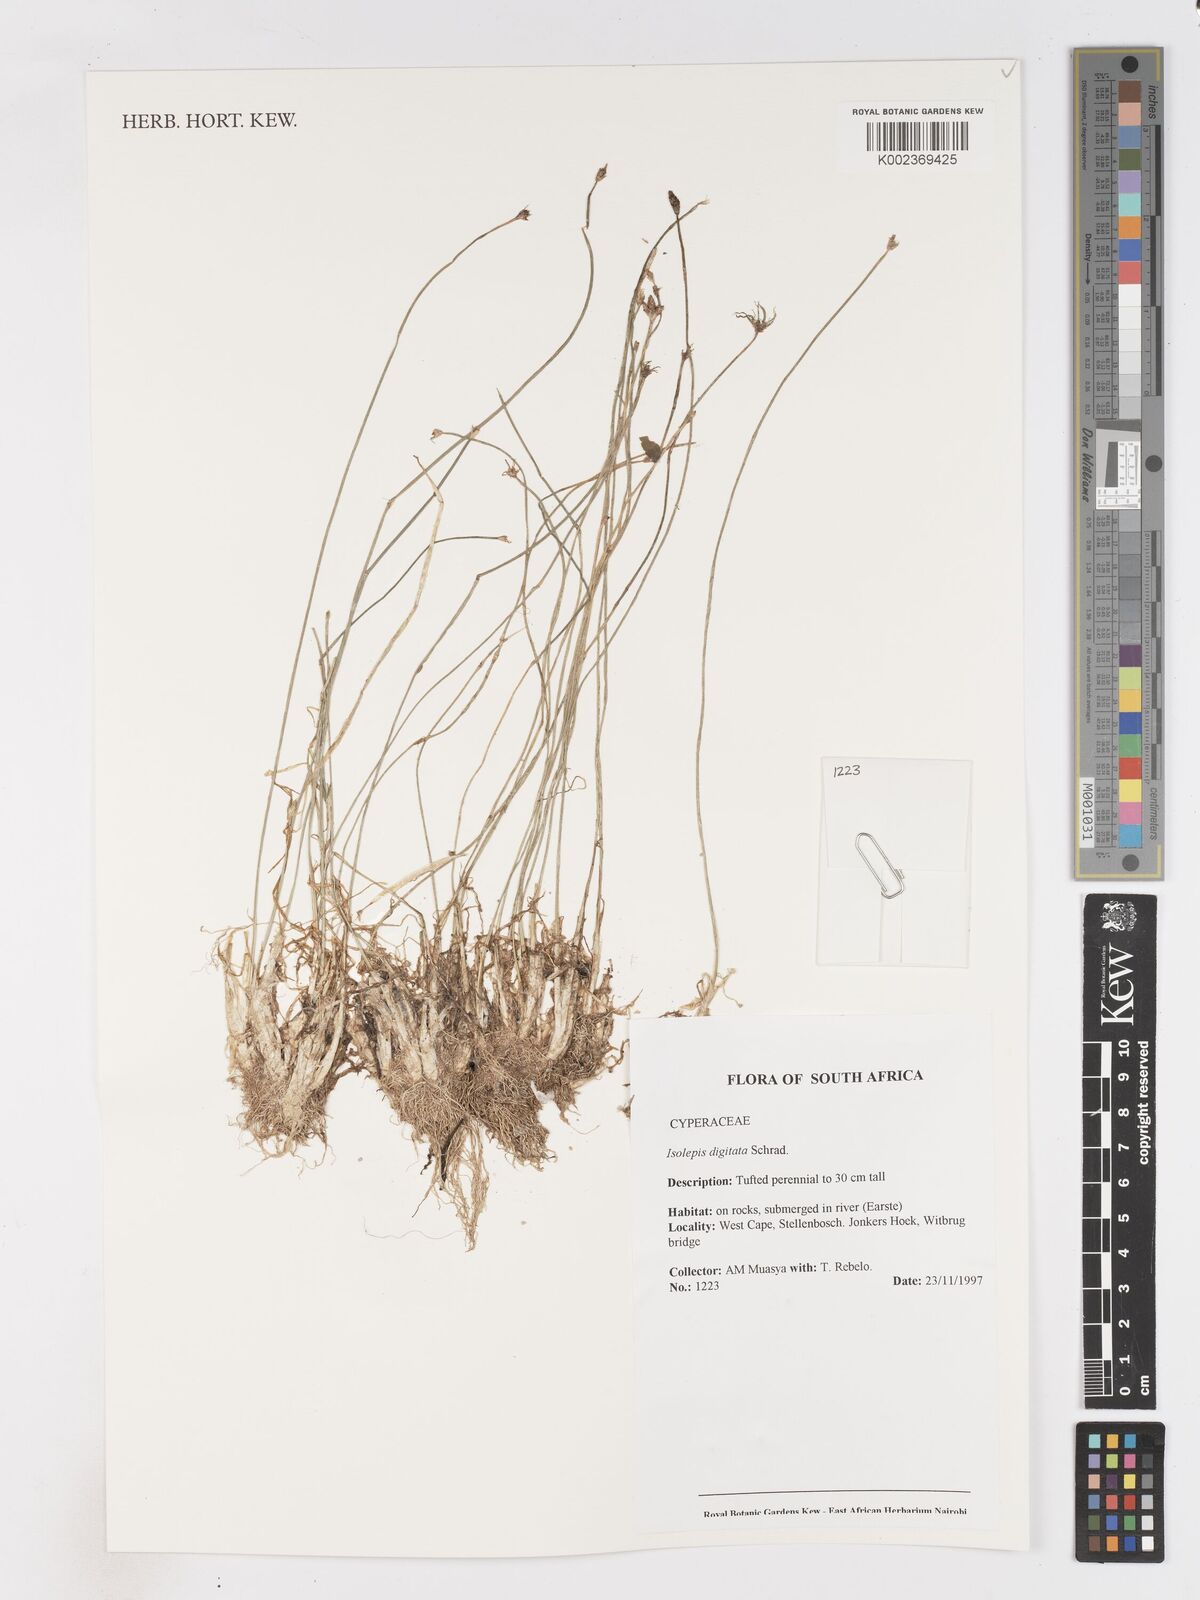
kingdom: Plantae
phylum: Tracheophyta
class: Liliopsida
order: Poales
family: Cyperaceae
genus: Isolepis
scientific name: Isolepis digitata
